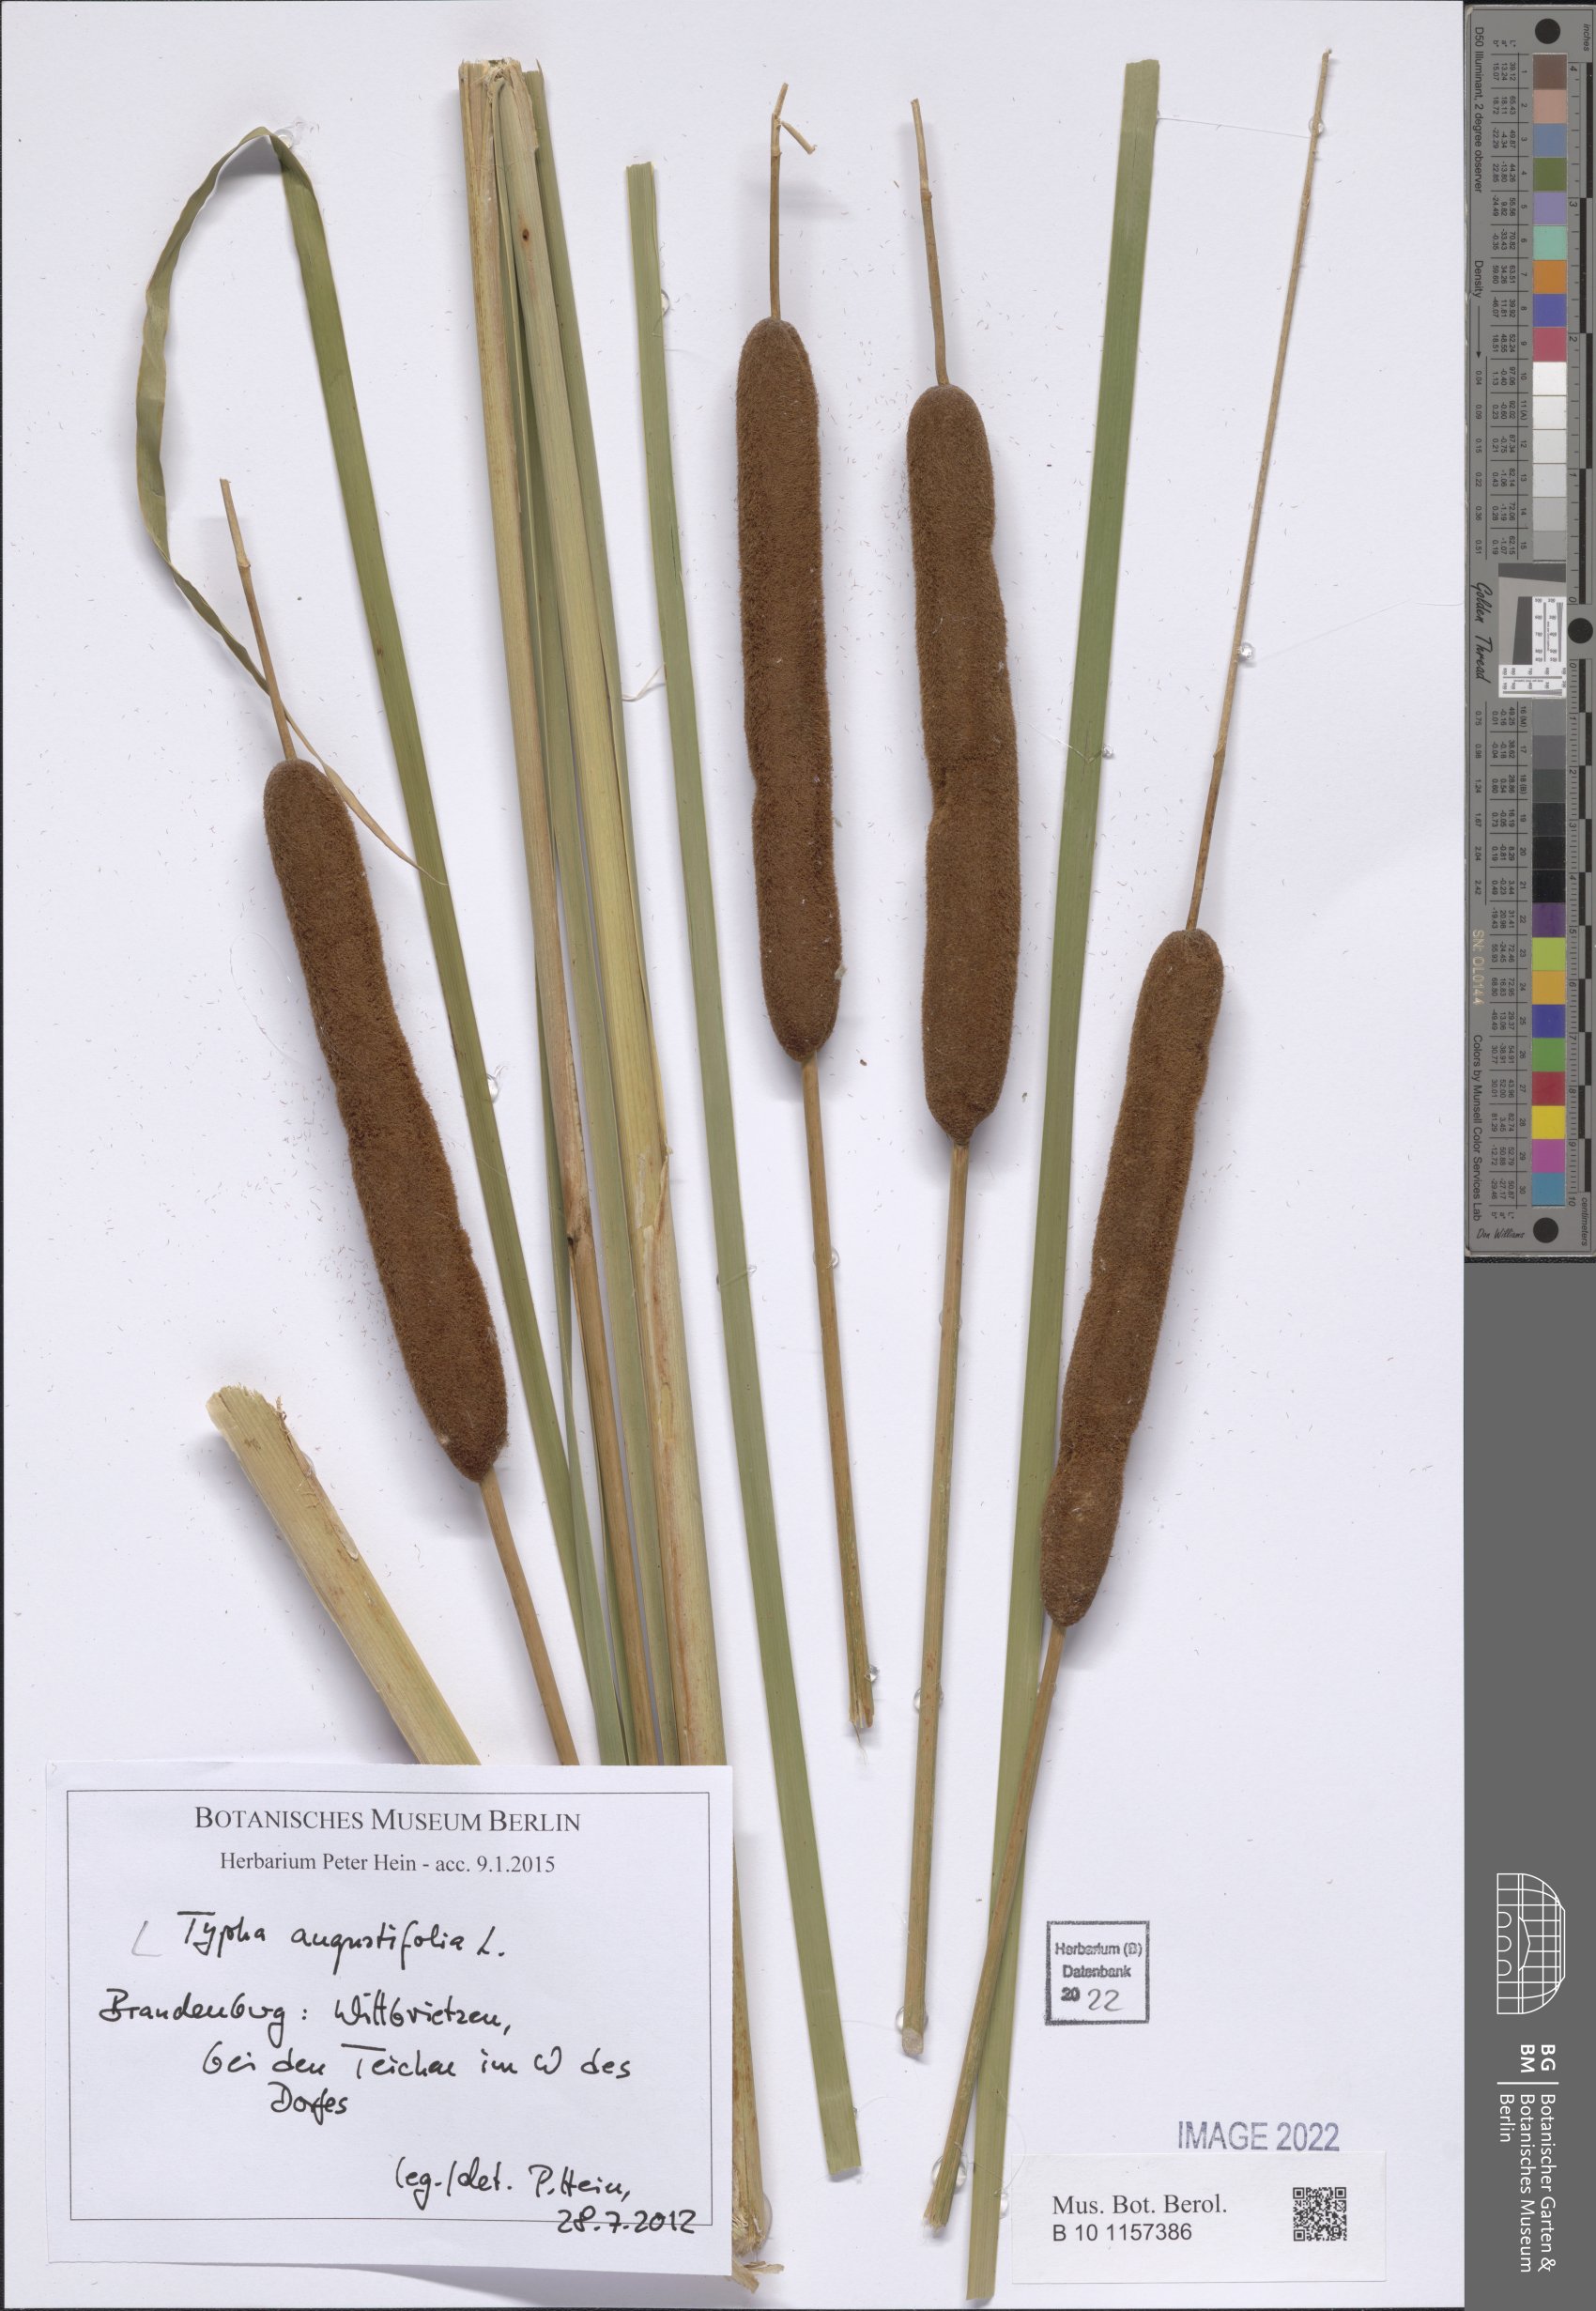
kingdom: Plantae
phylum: Tracheophyta
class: Liliopsida
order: Poales
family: Typhaceae
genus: Typha
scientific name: Typha angustifolia
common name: Lesser bulrush
